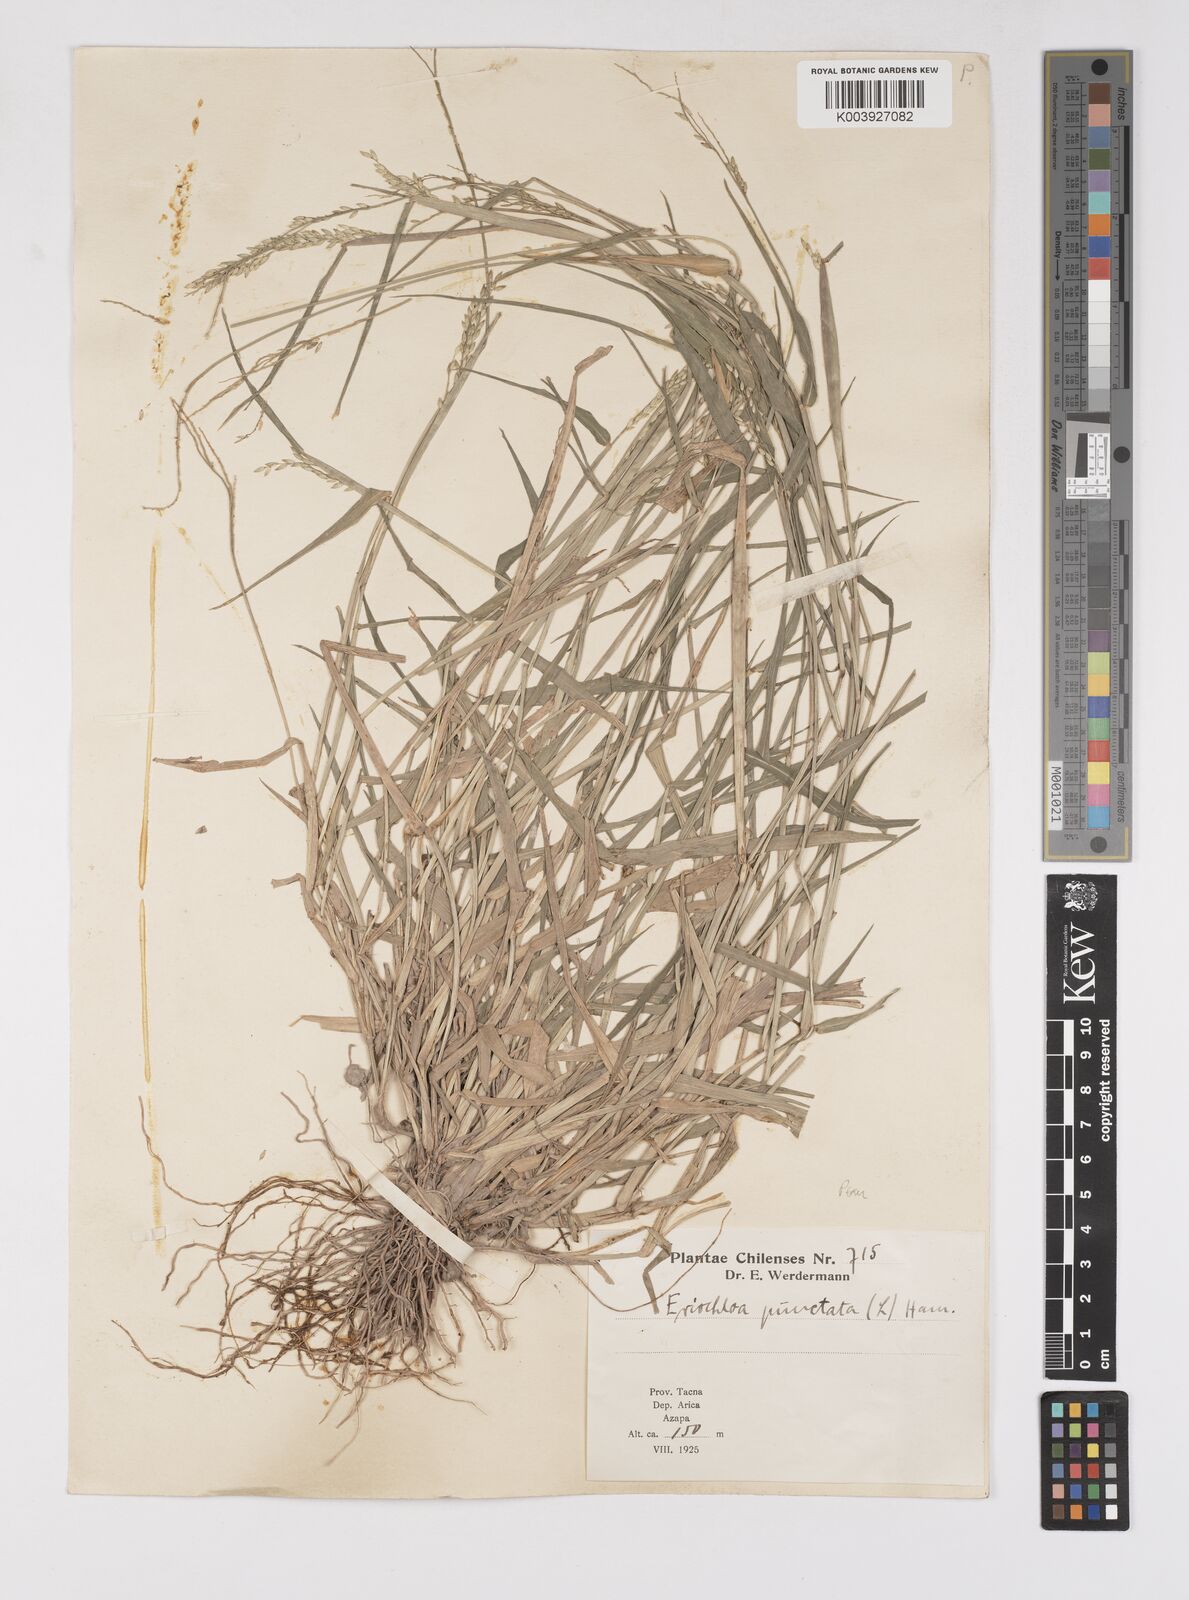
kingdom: Plantae
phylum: Tracheophyta
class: Liliopsida
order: Poales
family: Poaceae
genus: Eriochloa
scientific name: Eriochloa punctata
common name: Louisiana cupgrass
